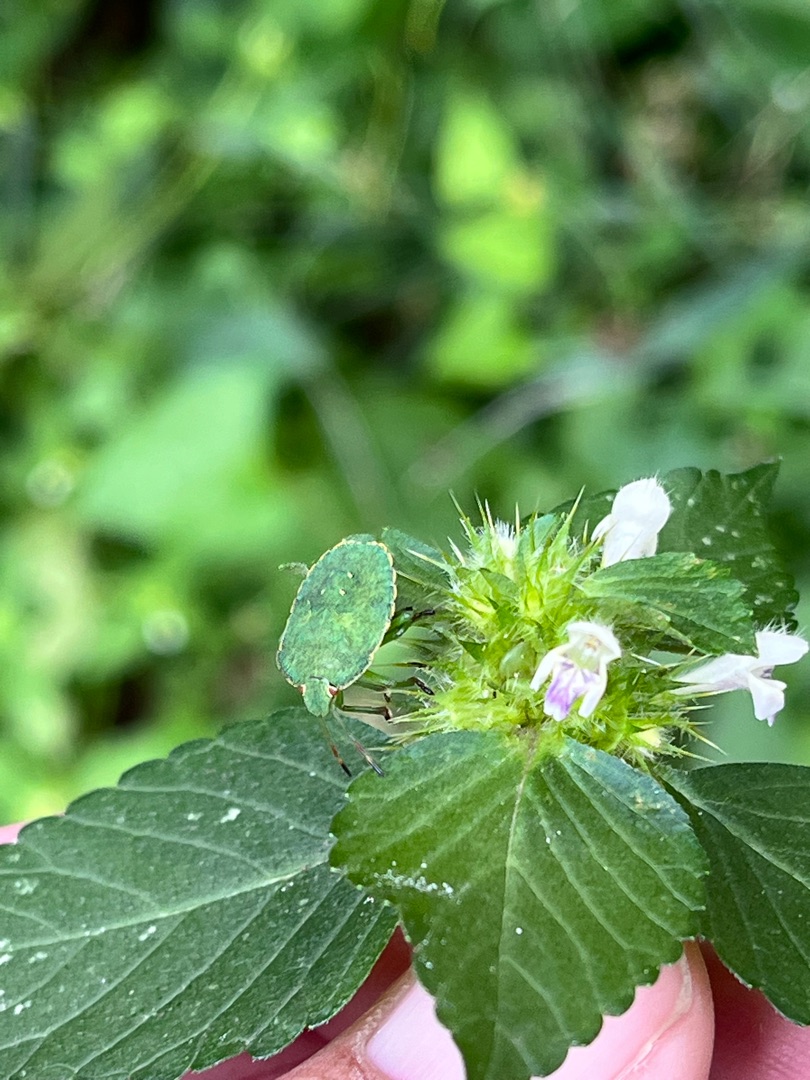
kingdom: Animalia
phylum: Arthropoda
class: Insecta
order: Hemiptera
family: Pentatomidae
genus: Palomena
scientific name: Palomena prasina
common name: Grøn bredtæge
